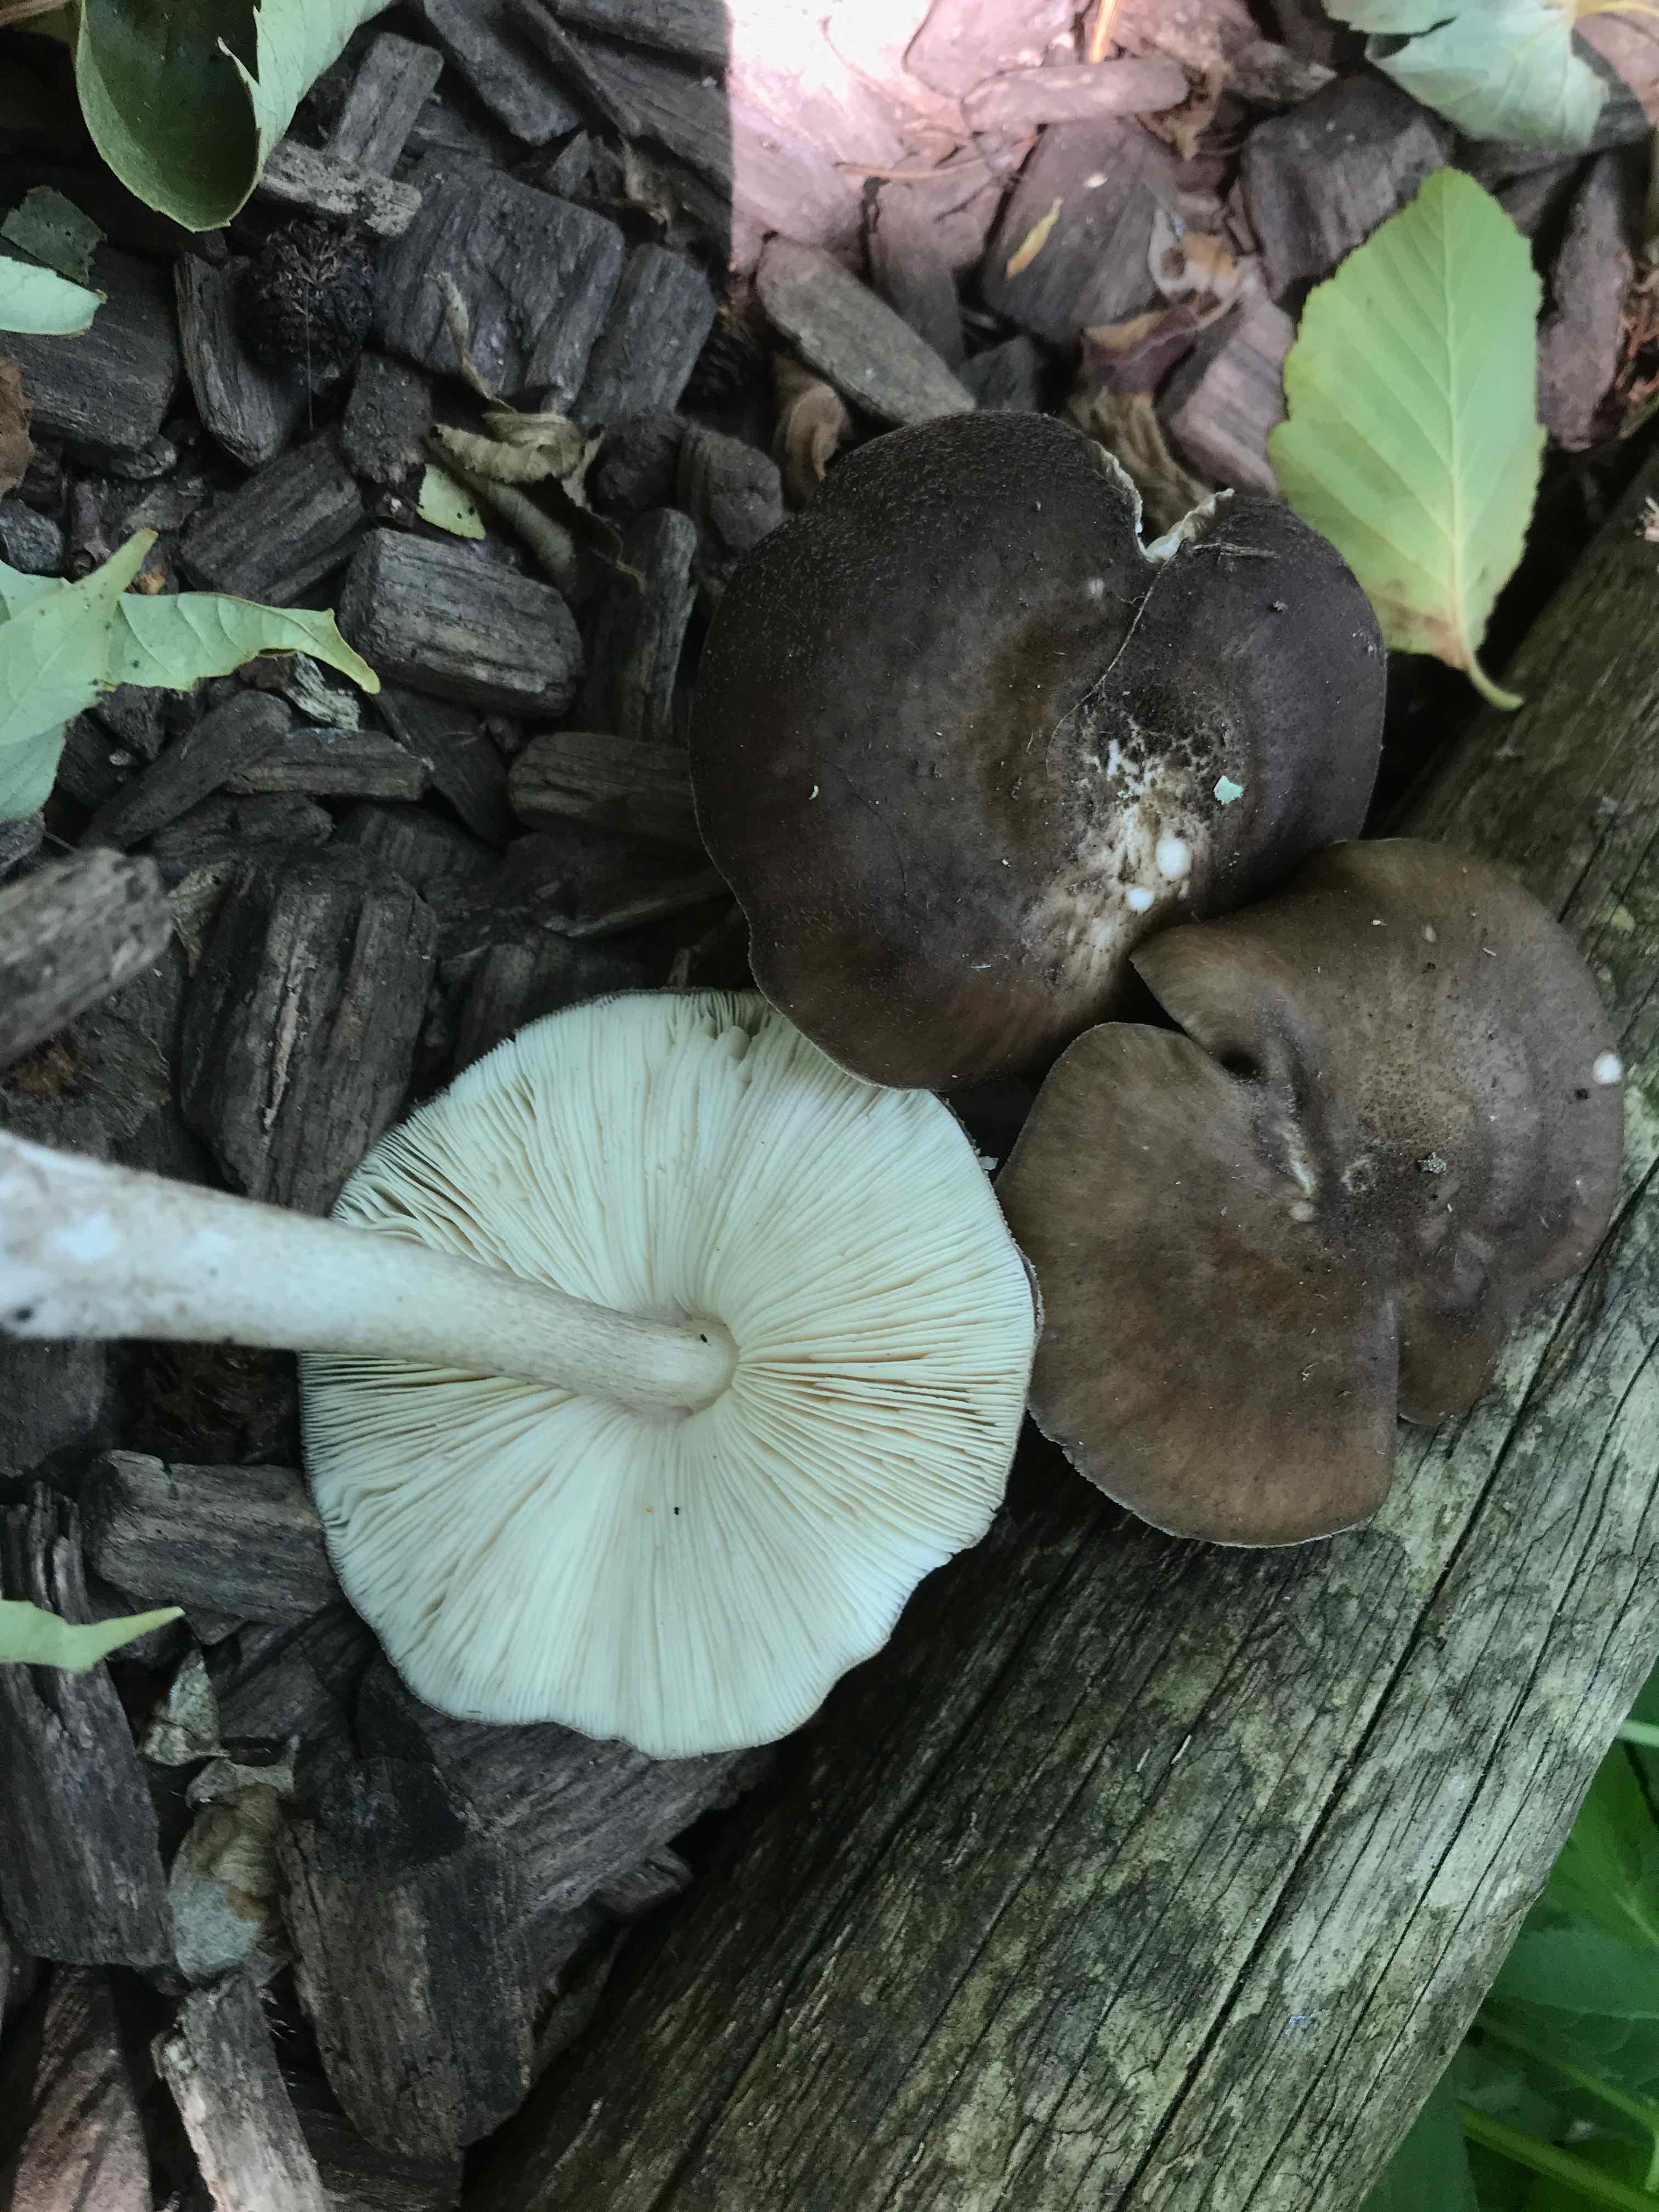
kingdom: Fungi
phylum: Basidiomycota
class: Agaricomycetes
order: Agaricales
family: Pluteaceae
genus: Pluteus
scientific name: Pluteus cervinus
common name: sodfarvet skærmhat
